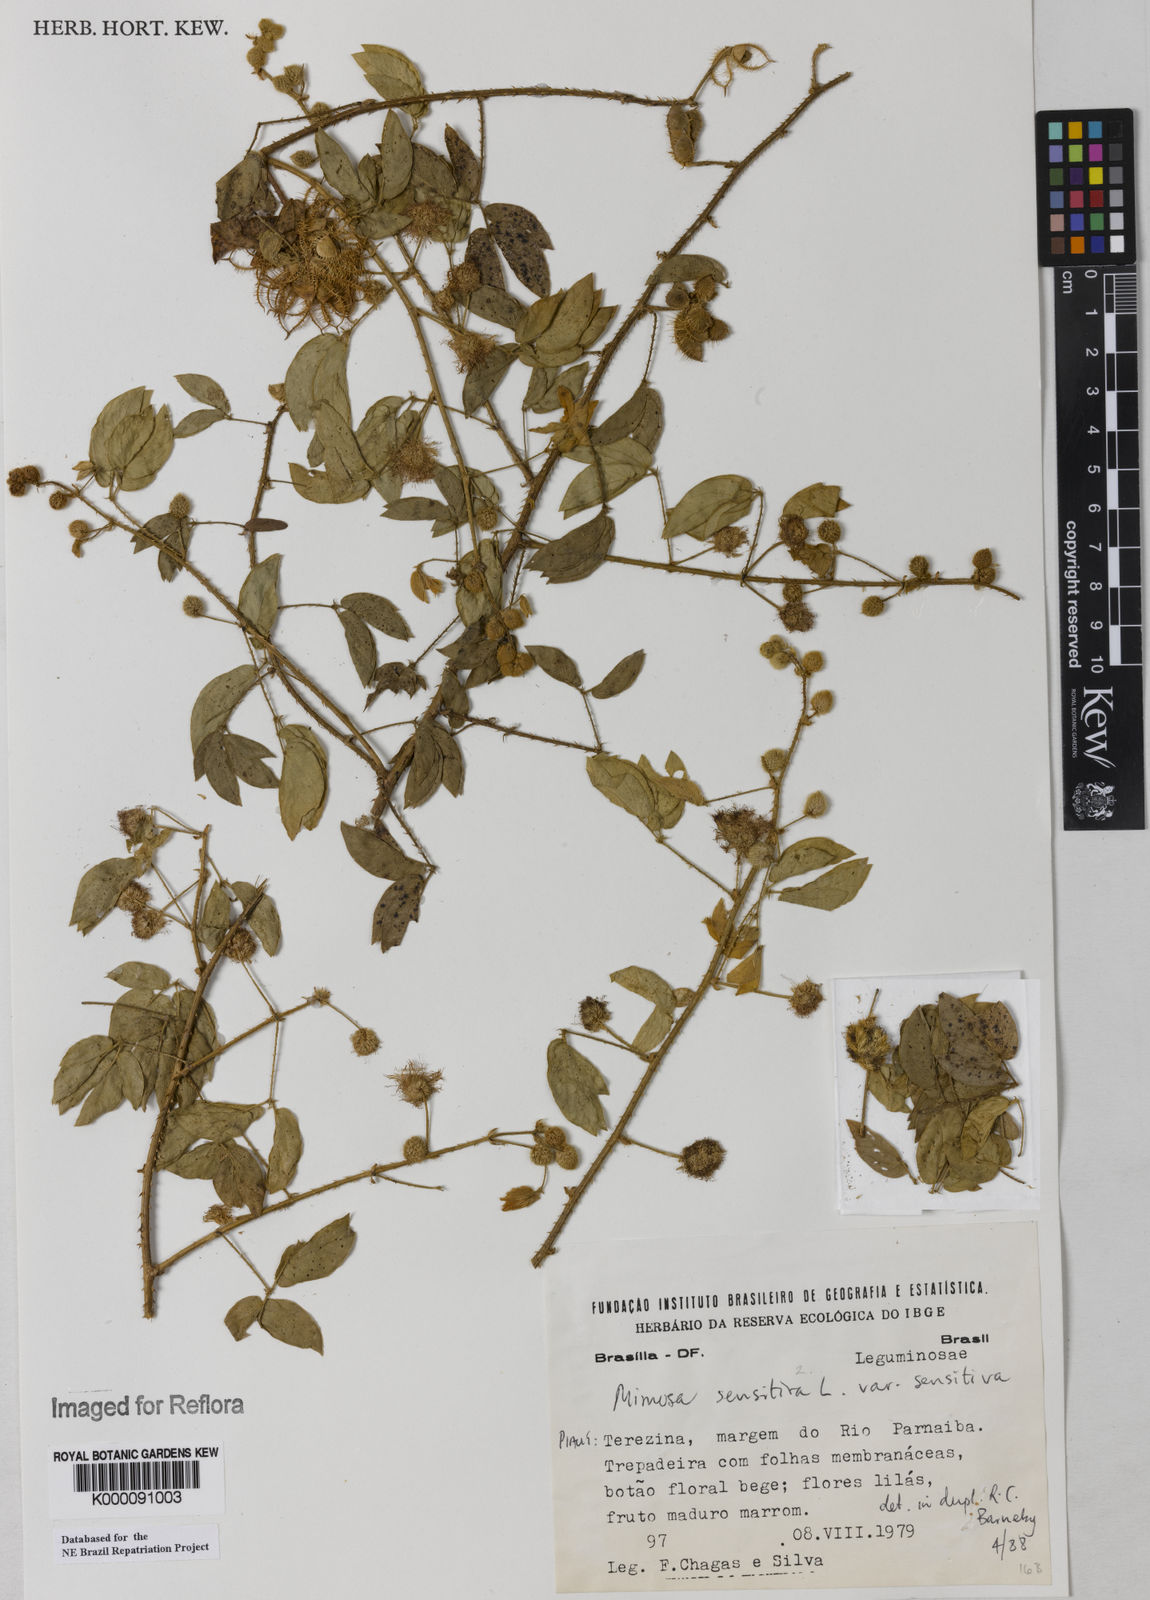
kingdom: Plantae
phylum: Tracheophyta
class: Magnoliopsida
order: Fabales
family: Fabaceae
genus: Mimosa
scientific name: Mimosa sensitiva
